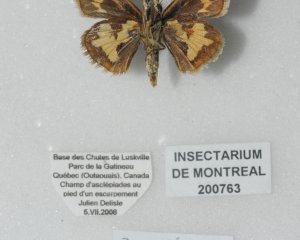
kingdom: Animalia
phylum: Arthropoda
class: Insecta
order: Lepidoptera
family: Hesperiidae
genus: Polites
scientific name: Polites coras
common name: Peck's Skipper
